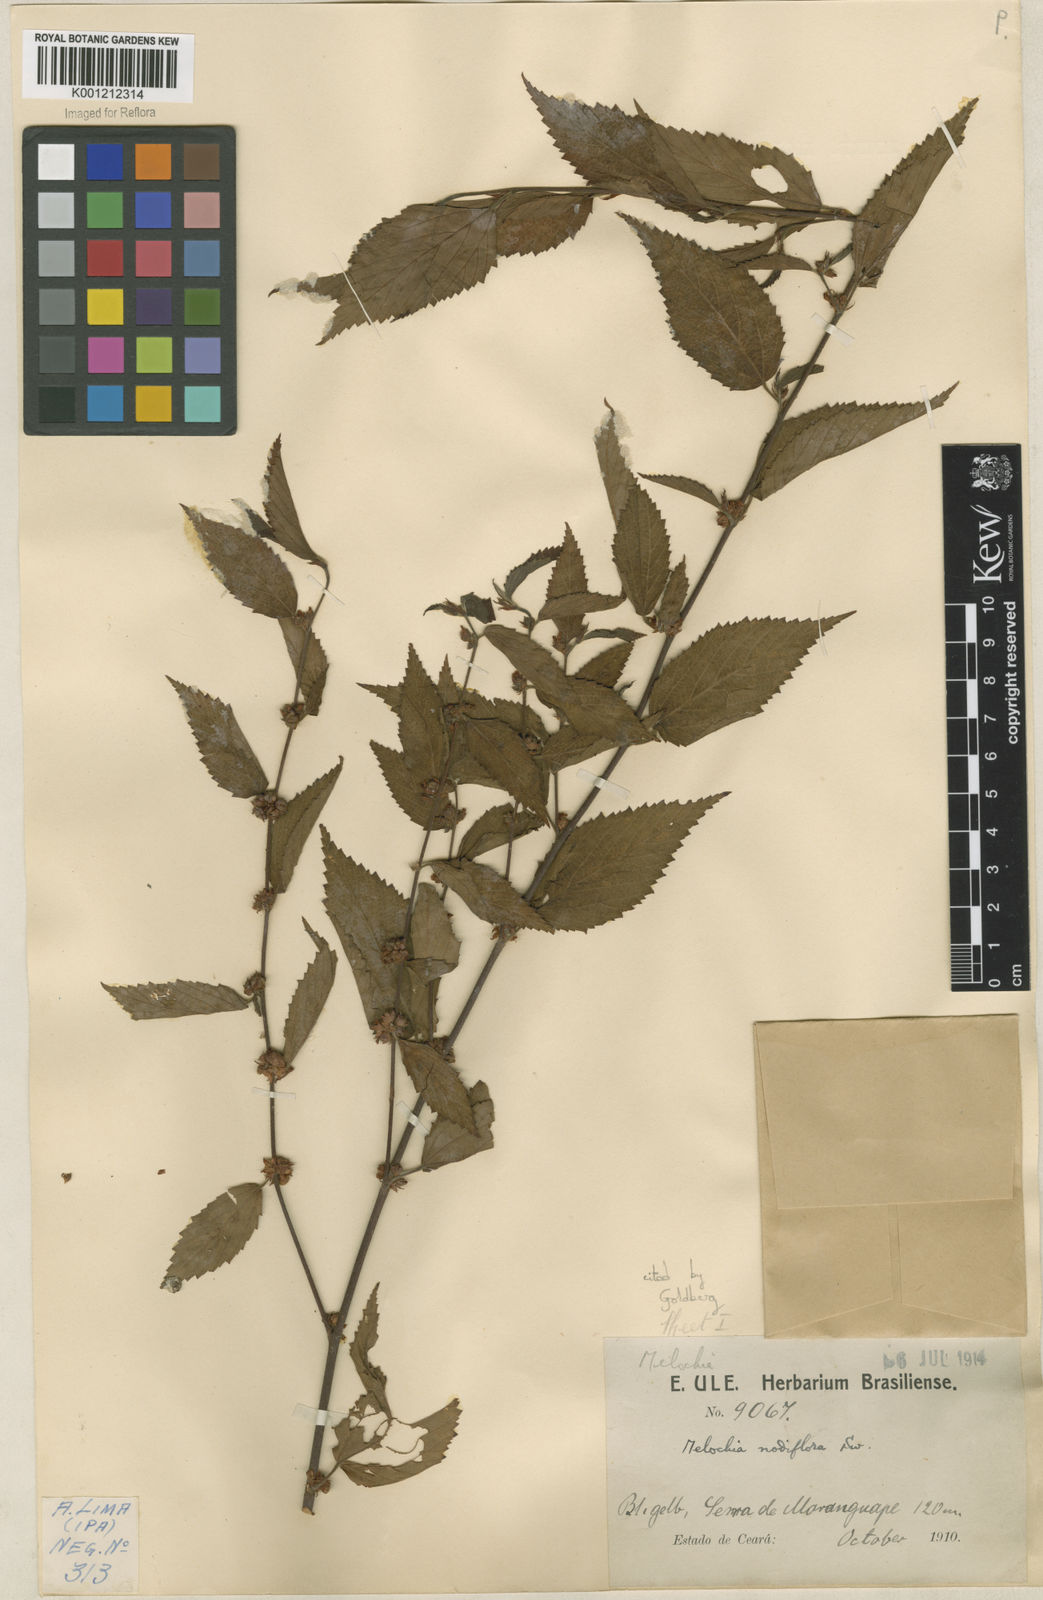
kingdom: Plantae
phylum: Tracheophyta
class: Magnoliopsida
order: Malvales
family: Malvaceae
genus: Melochia
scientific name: Melochia nodiflora
